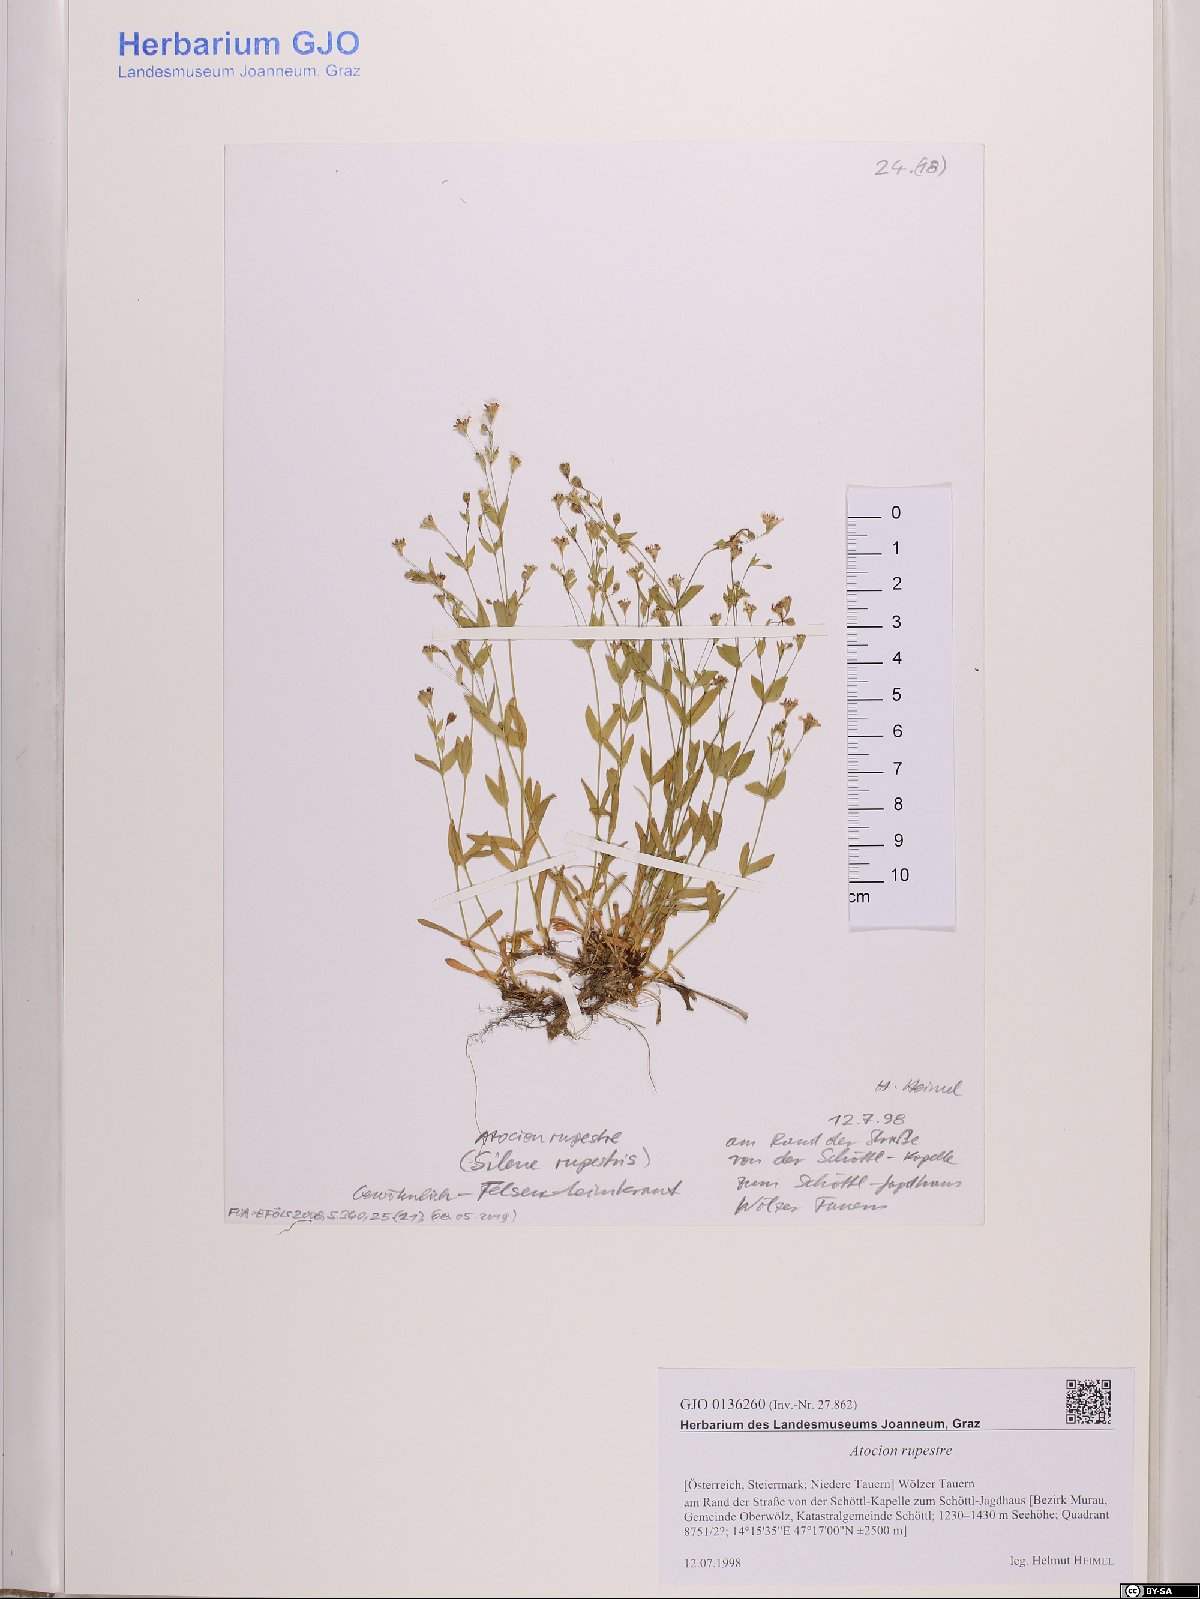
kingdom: Plantae
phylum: Tracheophyta
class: Magnoliopsida
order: Caryophyllales
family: Caryophyllaceae
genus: Atocion
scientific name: Atocion rupestre
